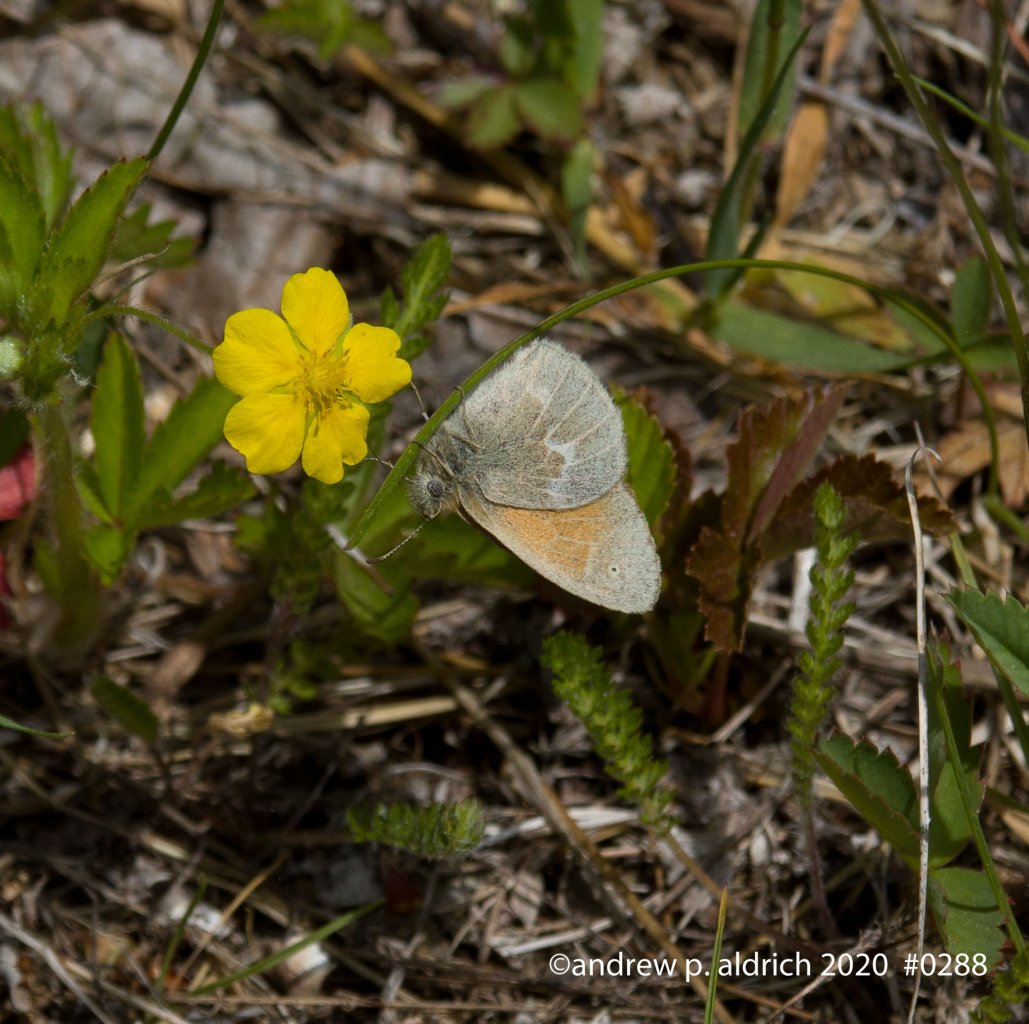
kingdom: Animalia
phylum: Arthropoda
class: Insecta
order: Lepidoptera
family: Nymphalidae
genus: Coenonympha
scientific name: Coenonympha tullia
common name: Large Heath
